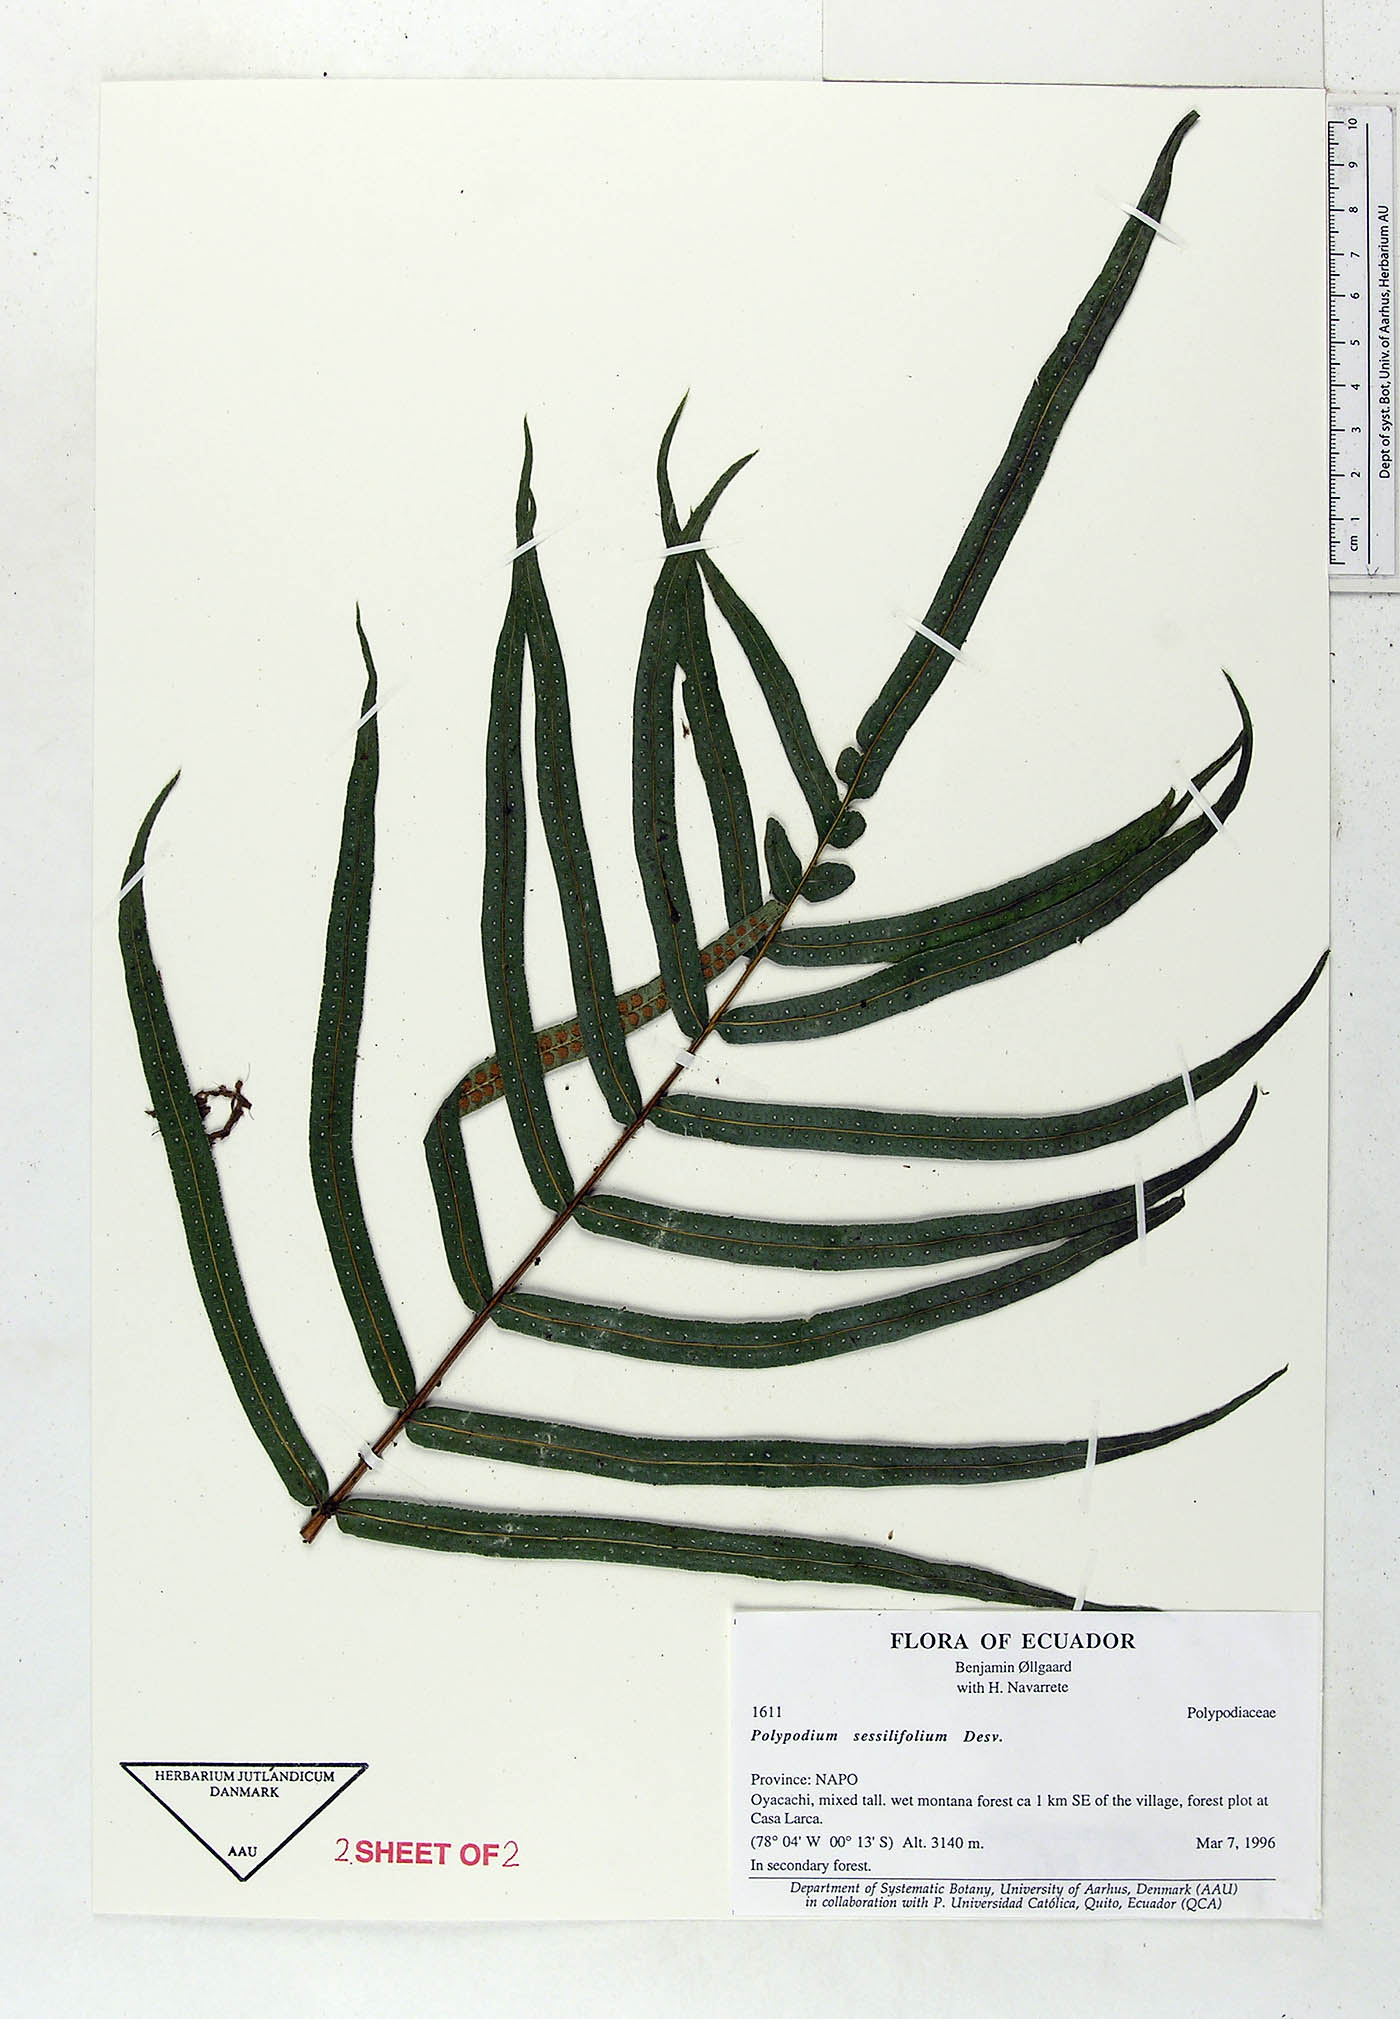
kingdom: Plantae
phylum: Tracheophyta
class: Polypodiopsida
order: Polypodiales
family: Polypodiaceae
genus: Serpocaulon
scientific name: Serpocaulon sessilifolium
